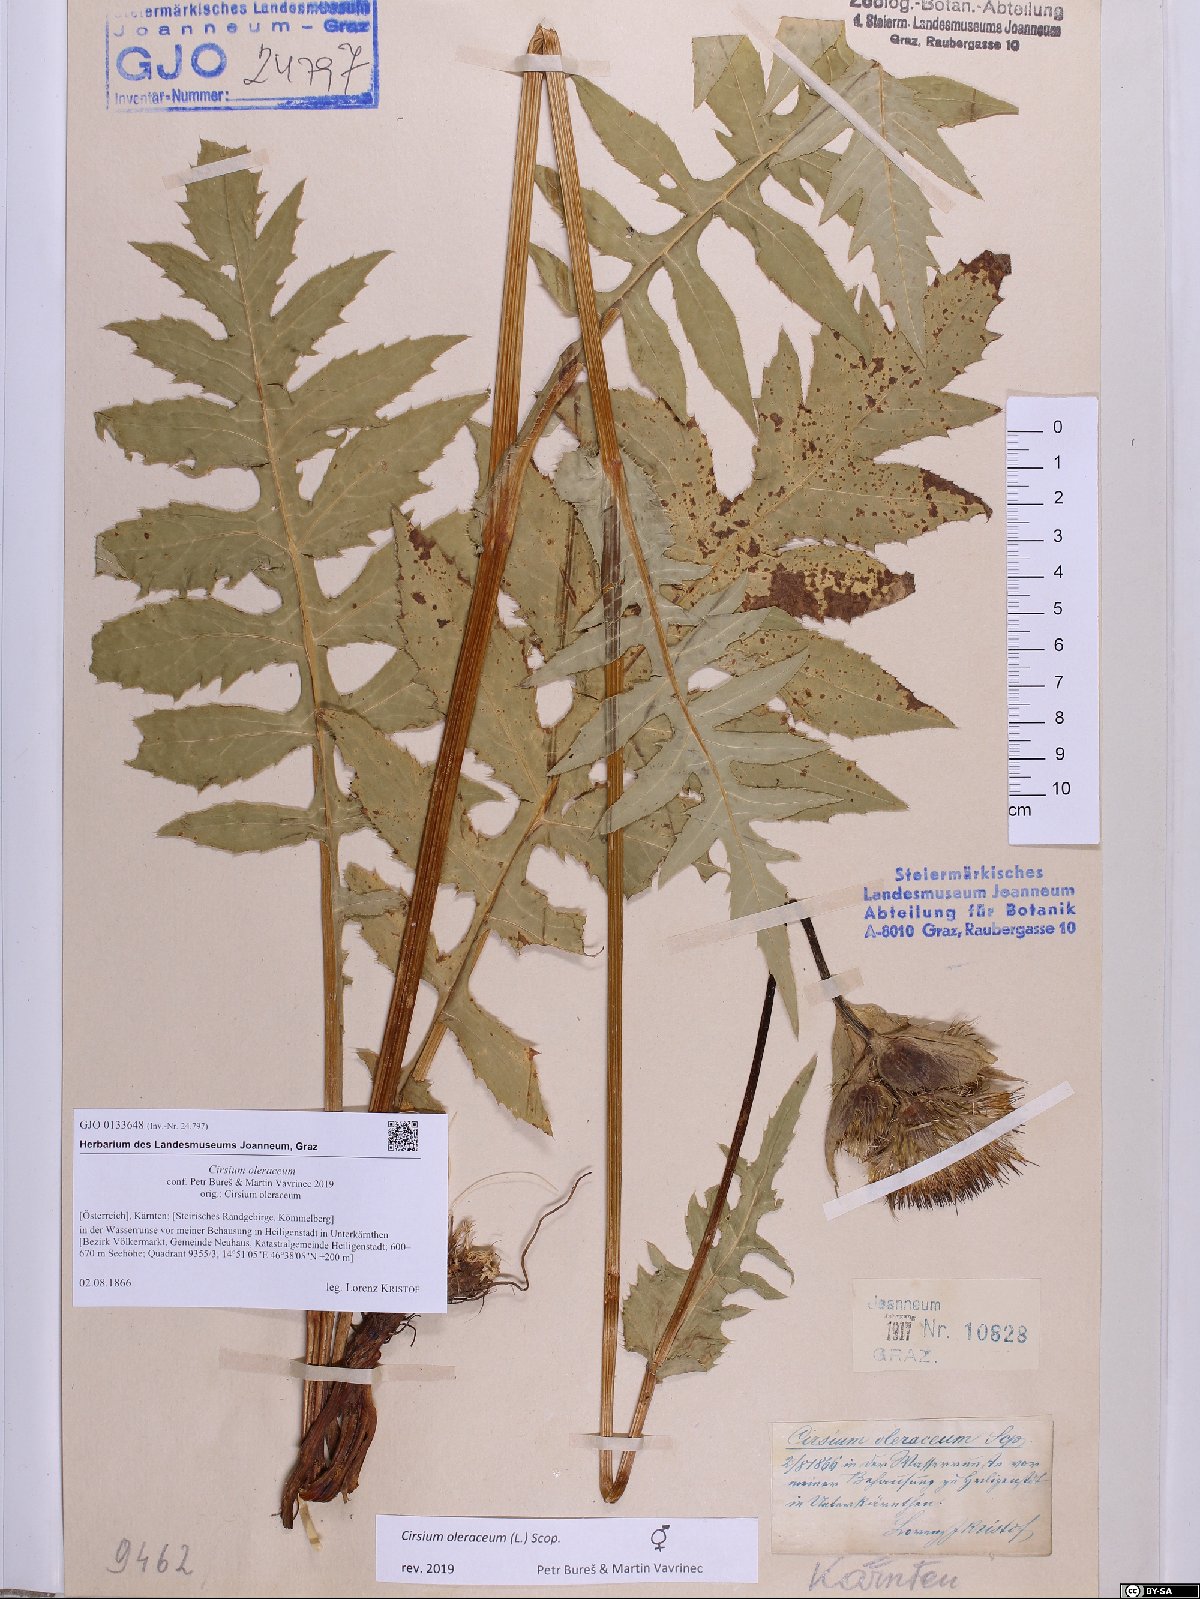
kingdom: Plantae
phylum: Tracheophyta
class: Magnoliopsida
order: Asterales
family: Asteraceae
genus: Cirsium
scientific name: Cirsium oleraceum
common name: Cabbage thistle
